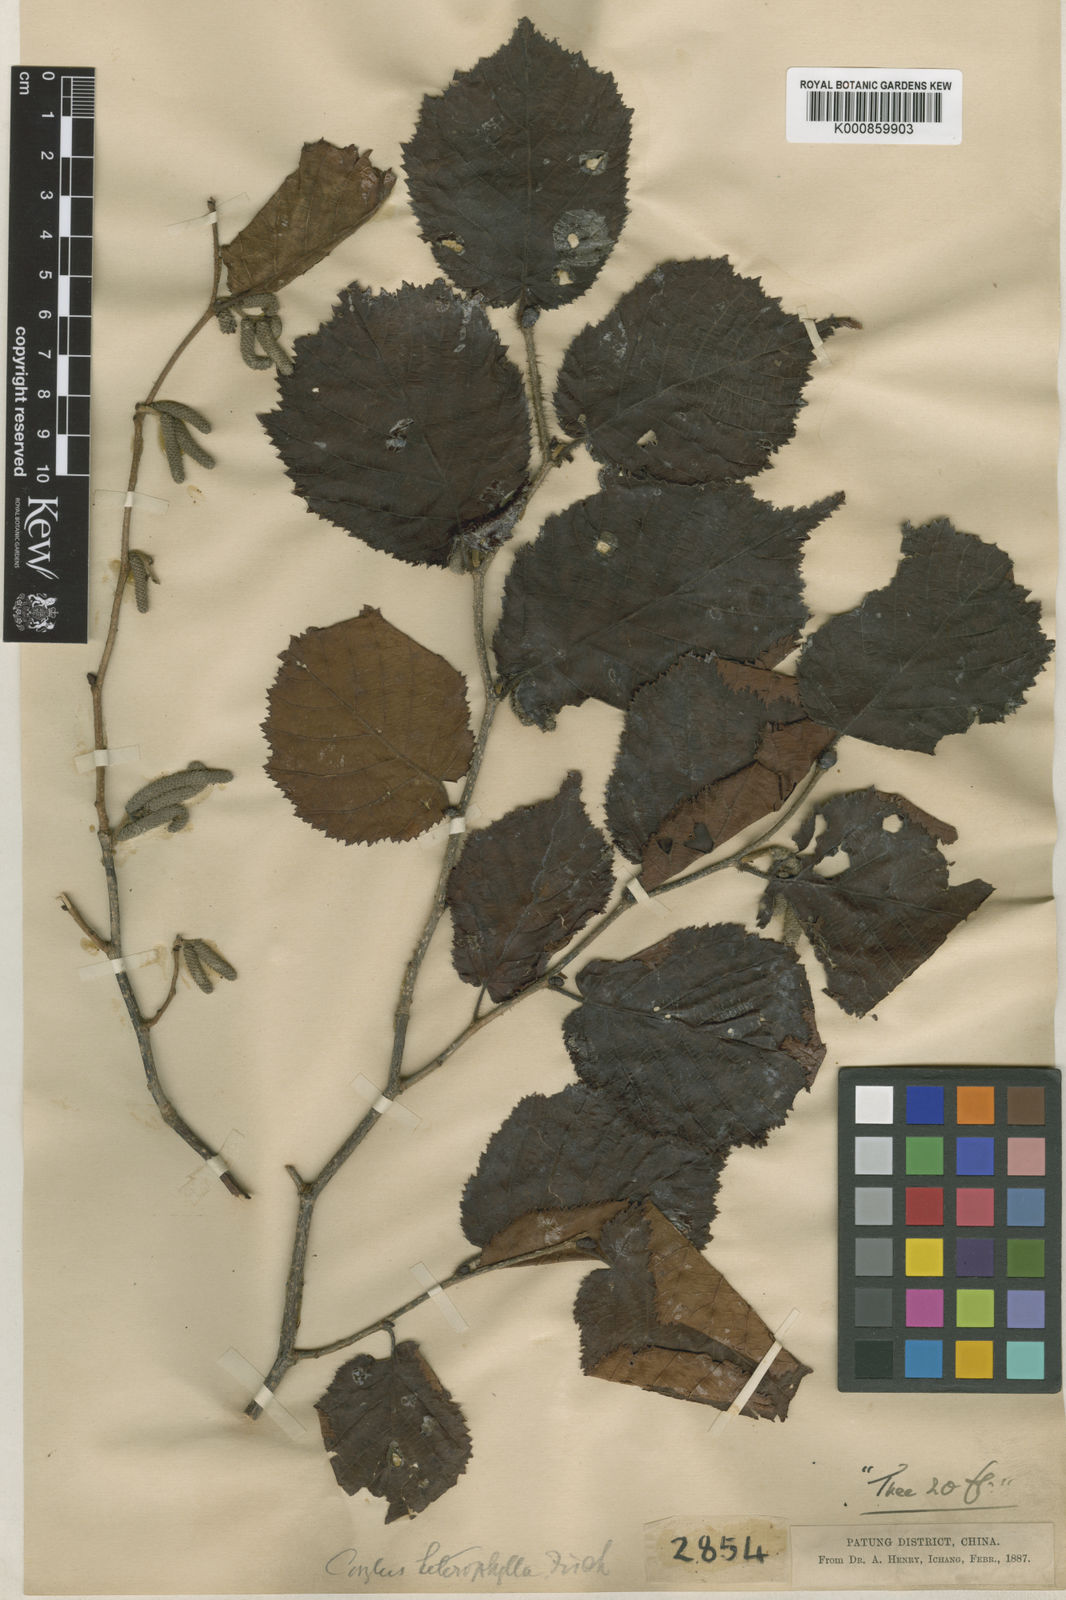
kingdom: Plantae
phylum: Tracheophyta
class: Magnoliopsida
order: Fagales
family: Betulaceae
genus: Corylus
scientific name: Corylus heterophylla
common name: Siberian hazelnut
